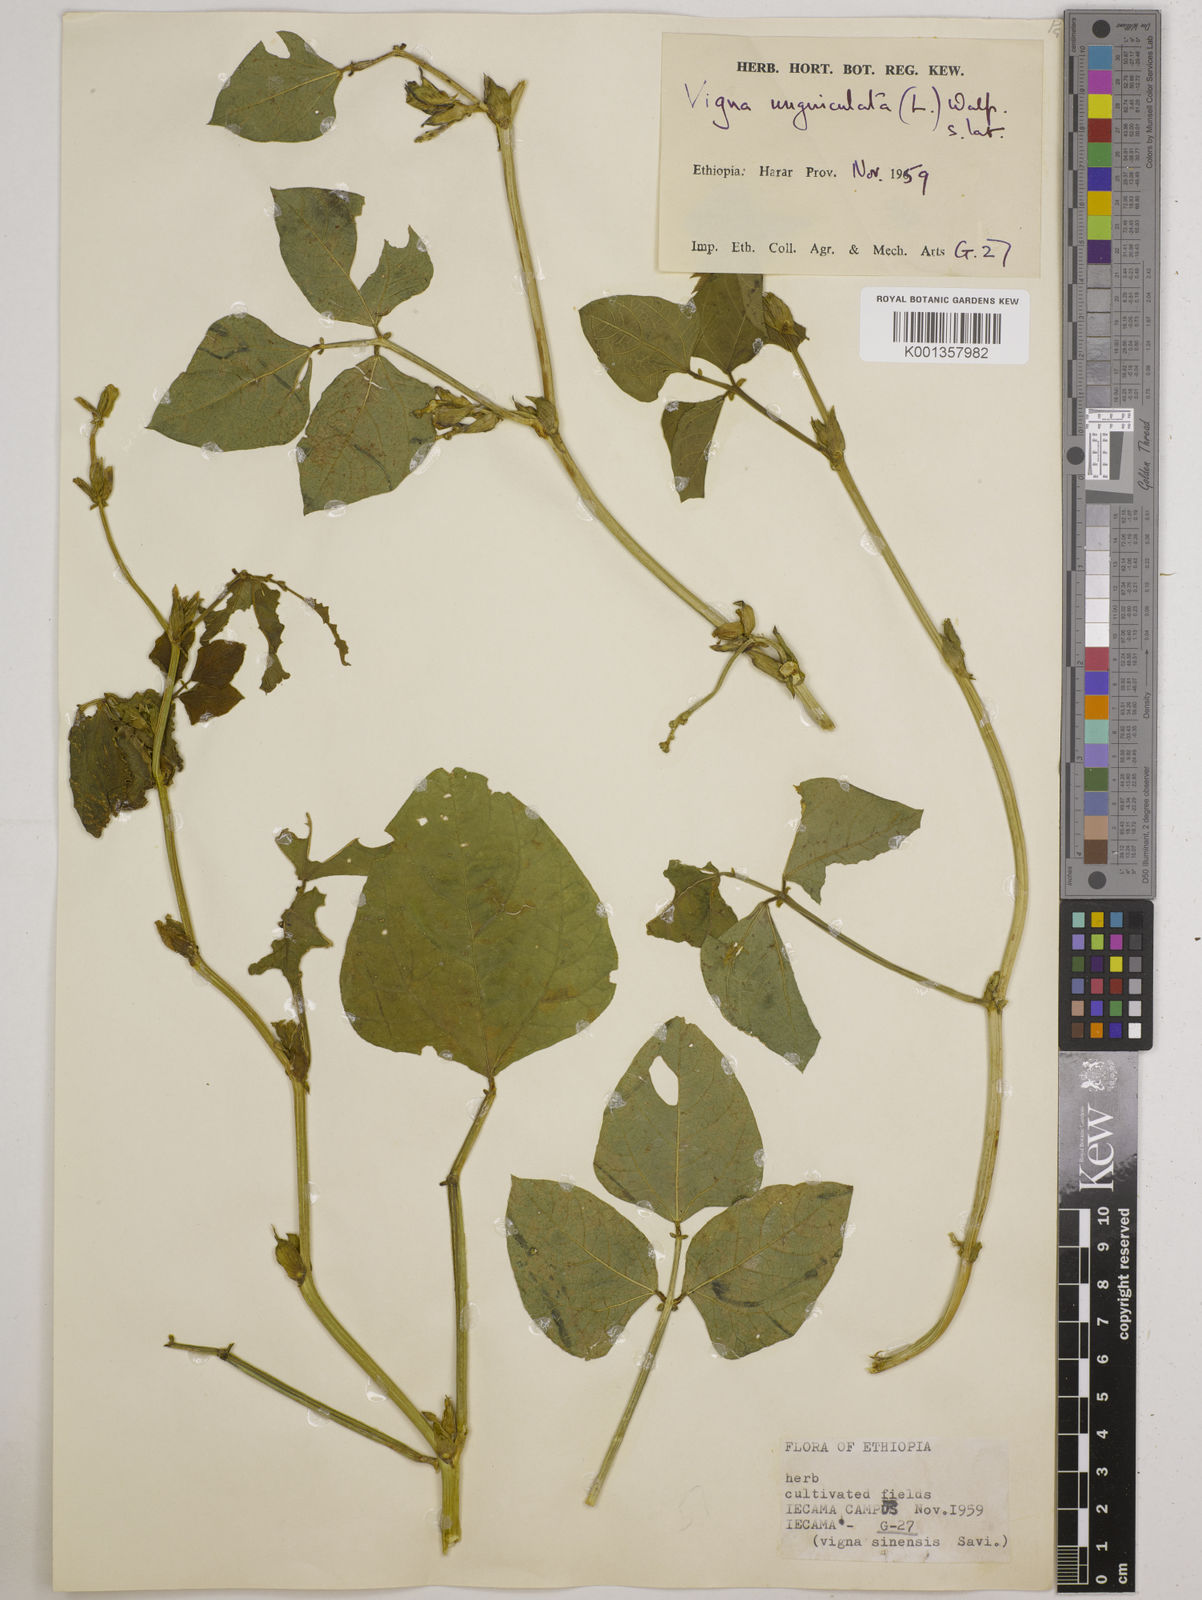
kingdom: Plantae
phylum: Tracheophyta
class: Magnoliopsida
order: Fabales
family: Fabaceae
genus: Vigna
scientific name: Vigna
